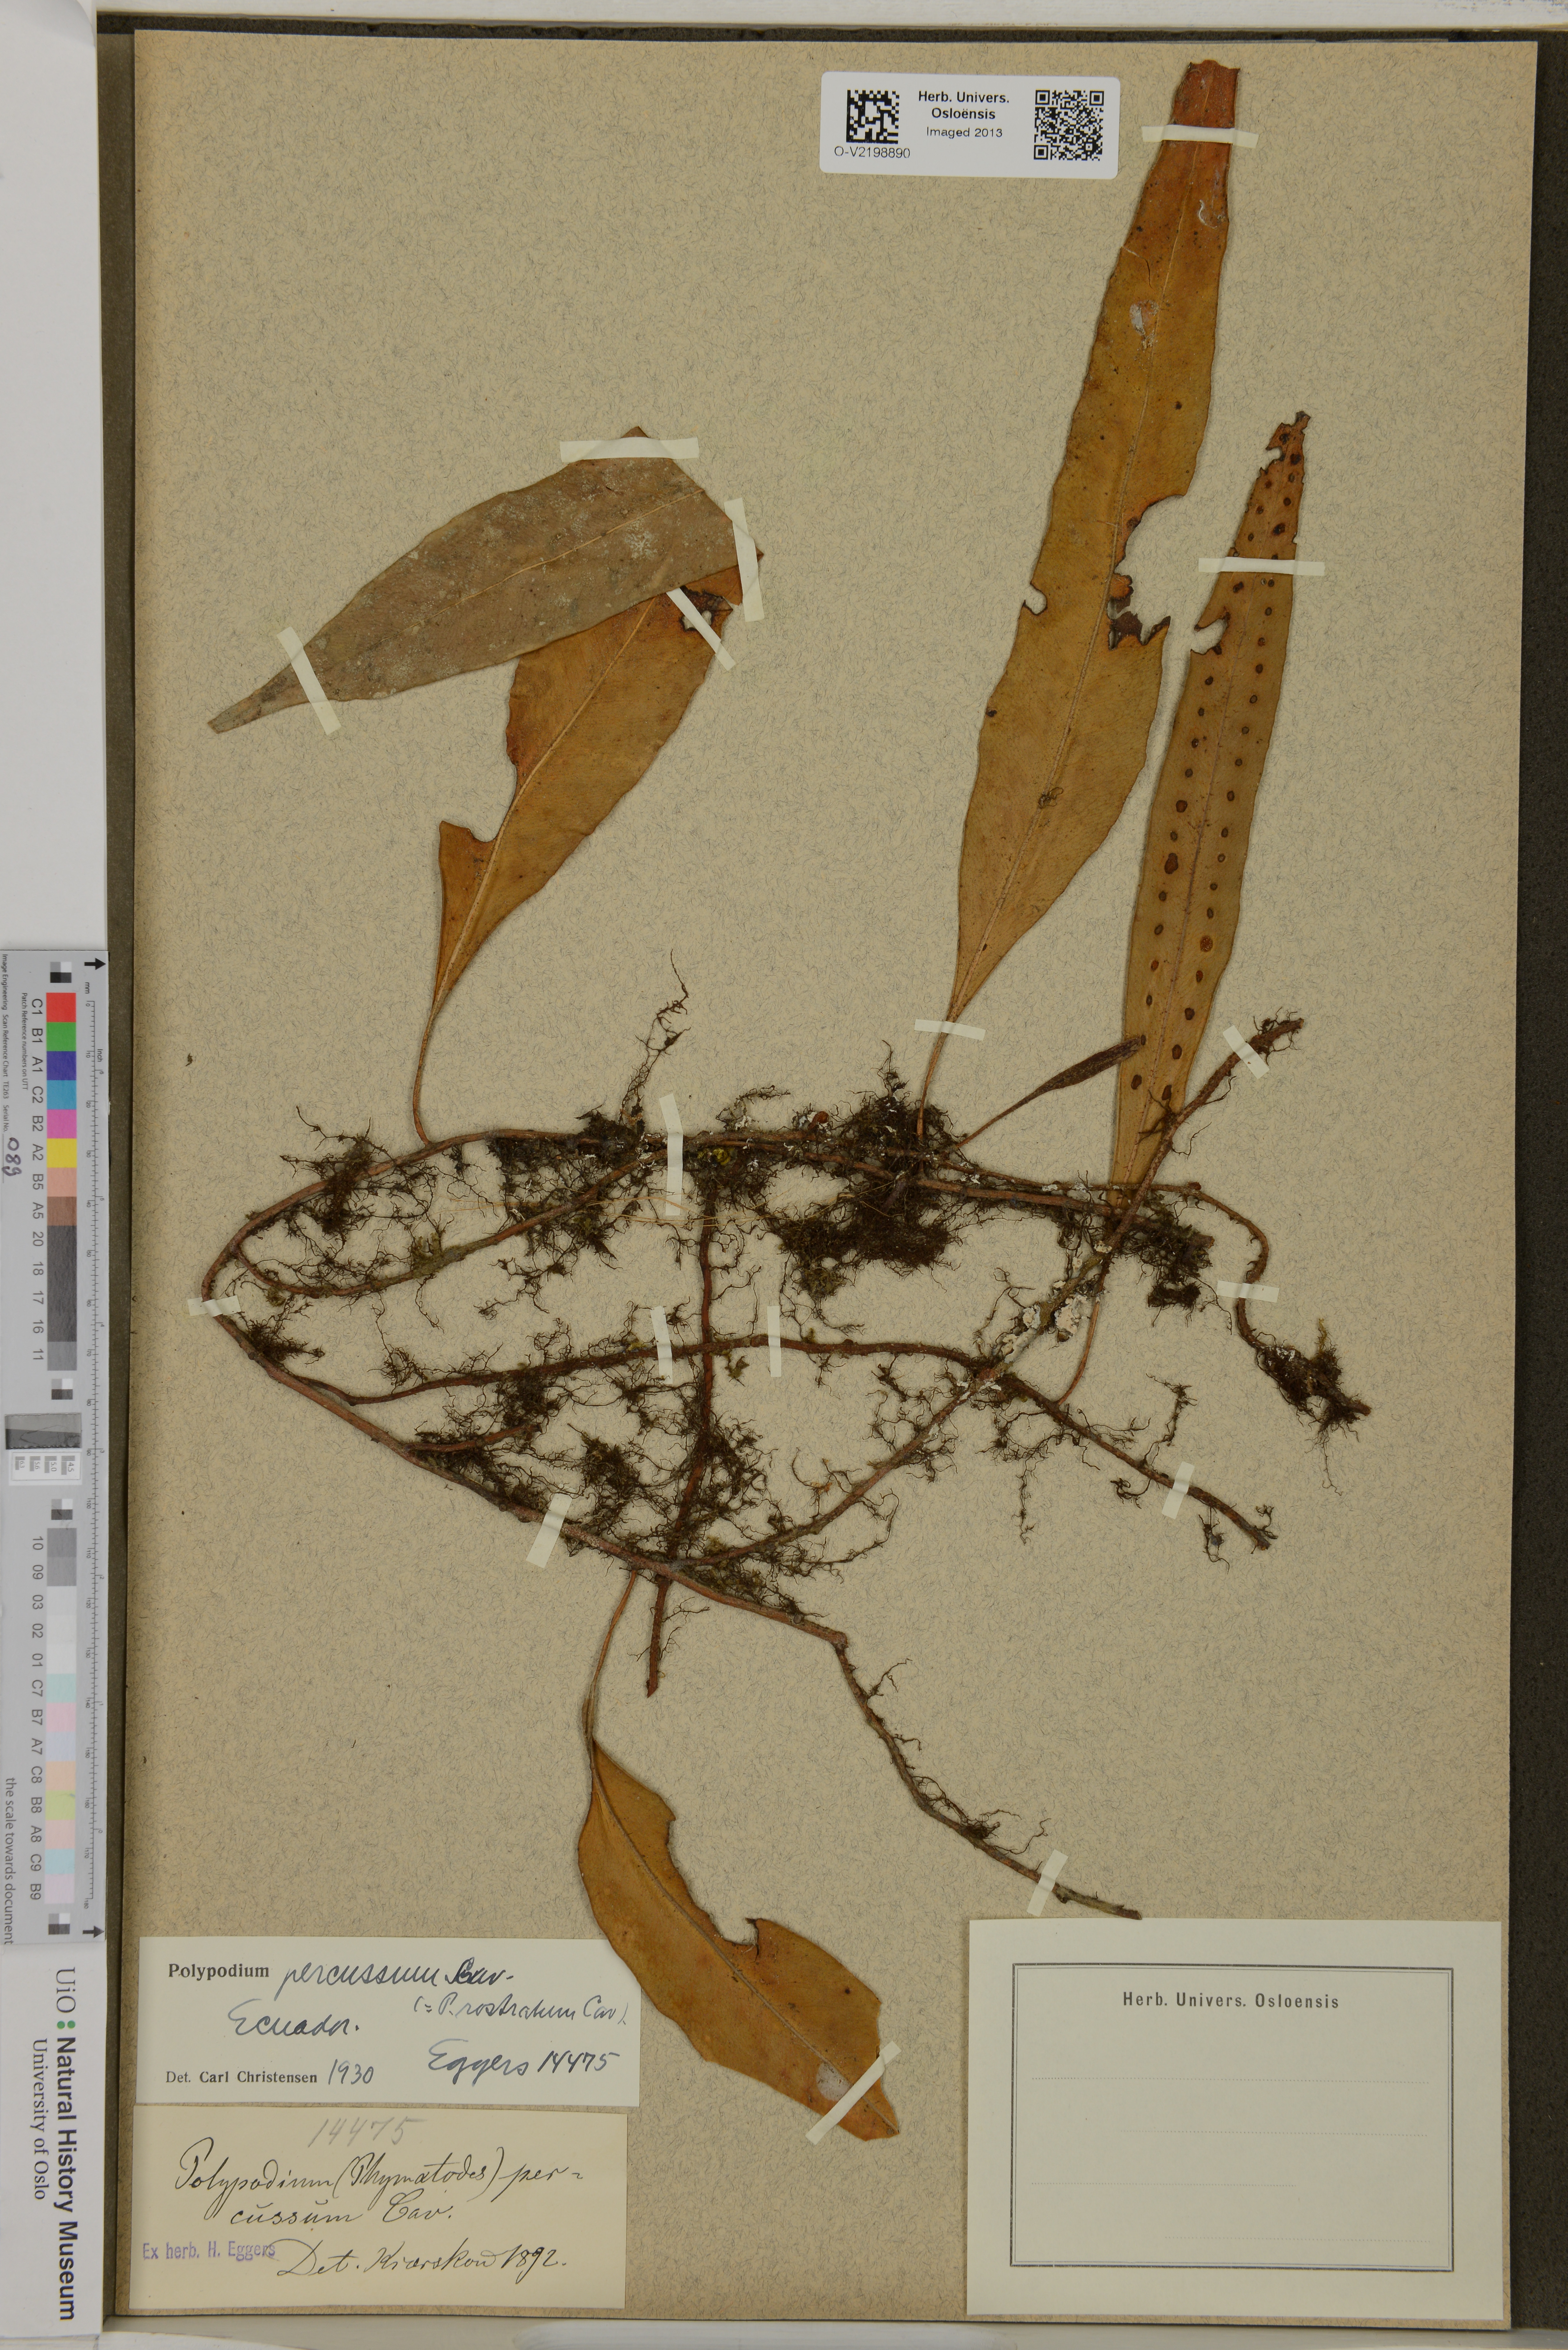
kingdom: Plantae
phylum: Tracheophyta
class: Polypodiopsida
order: Polypodiales
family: Polypodiaceae
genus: Microgramma
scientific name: Microgramma percussa
